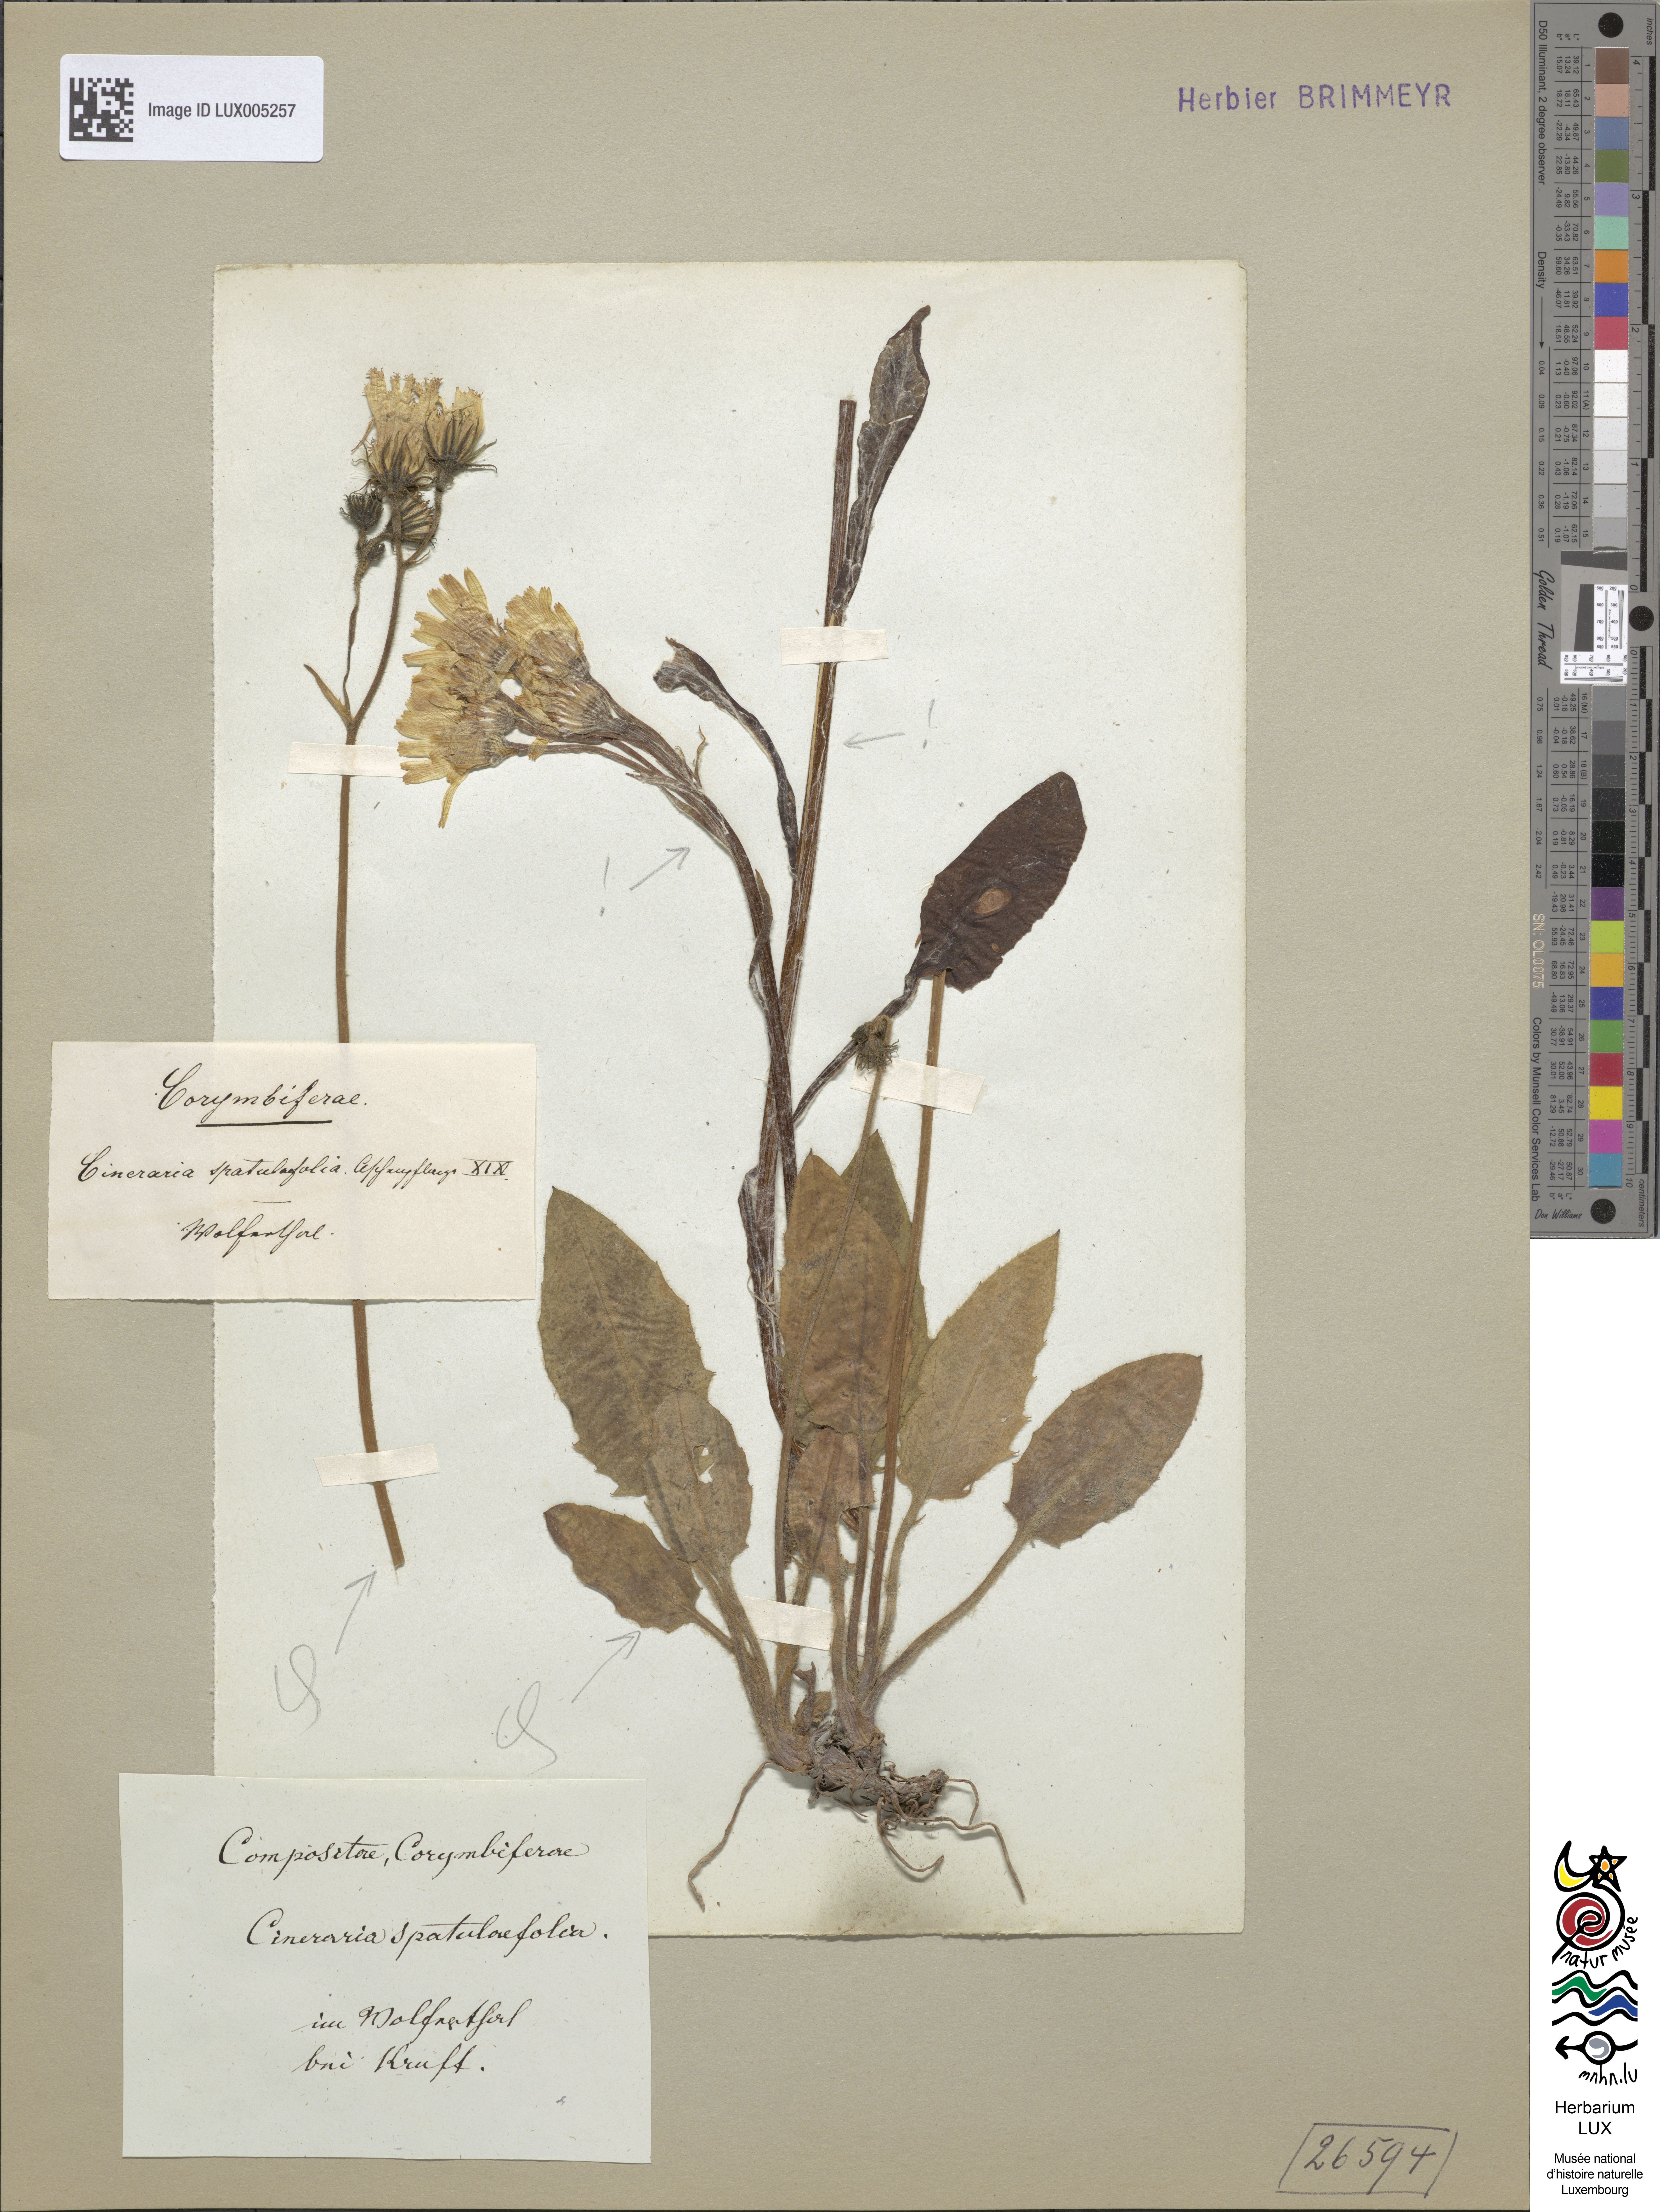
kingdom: Plantae
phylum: Tracheophyta
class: Magnoliopsida
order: Asterales
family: Asteraceae
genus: Senecio
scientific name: Senecio spathulaefolius
